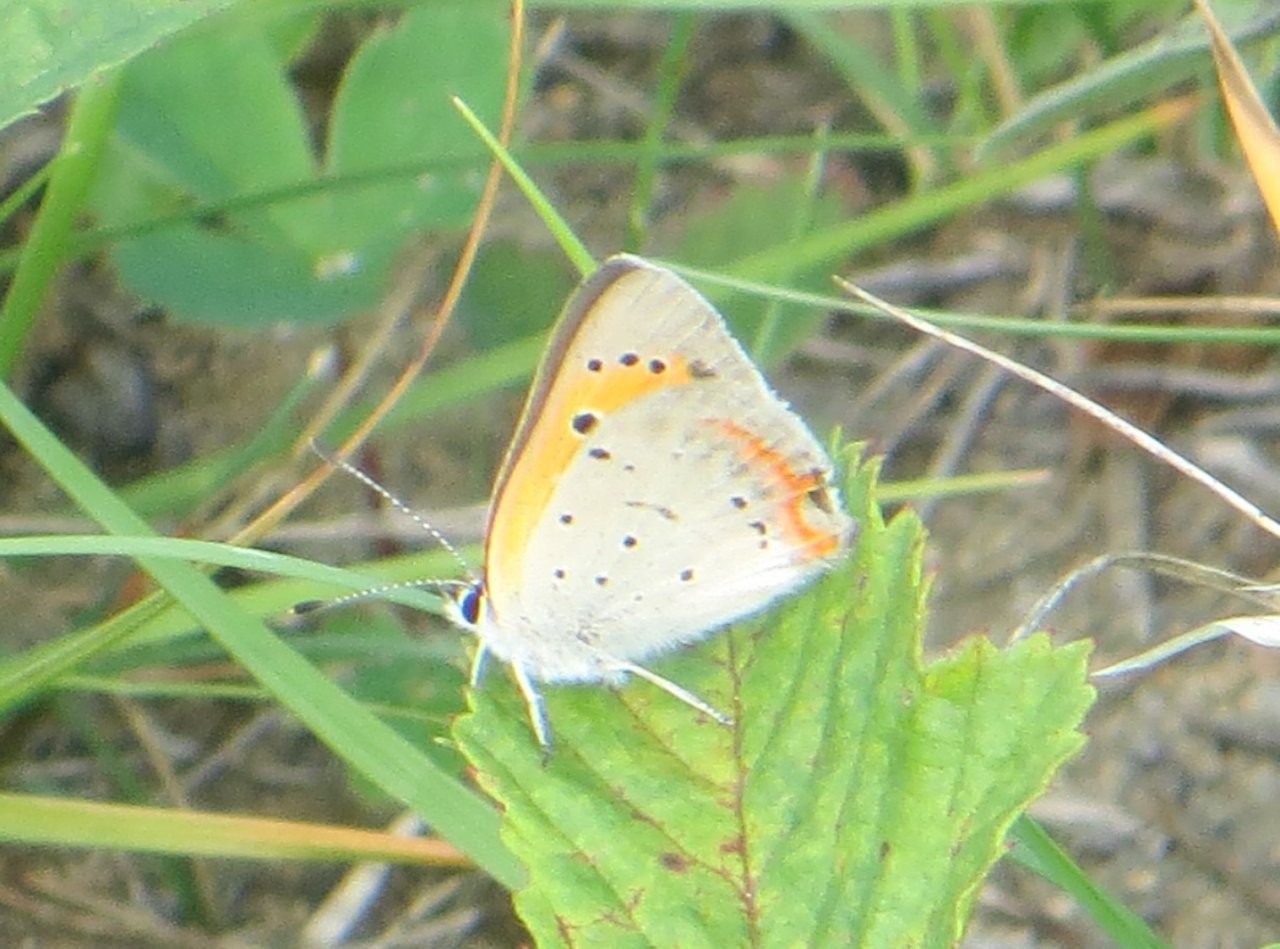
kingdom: Animalia
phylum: Arthropoda
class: Insecta
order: Lepidoptera
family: Lycaenidae
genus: Lycaena
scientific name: Lycaena phlaeas
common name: American Copper
